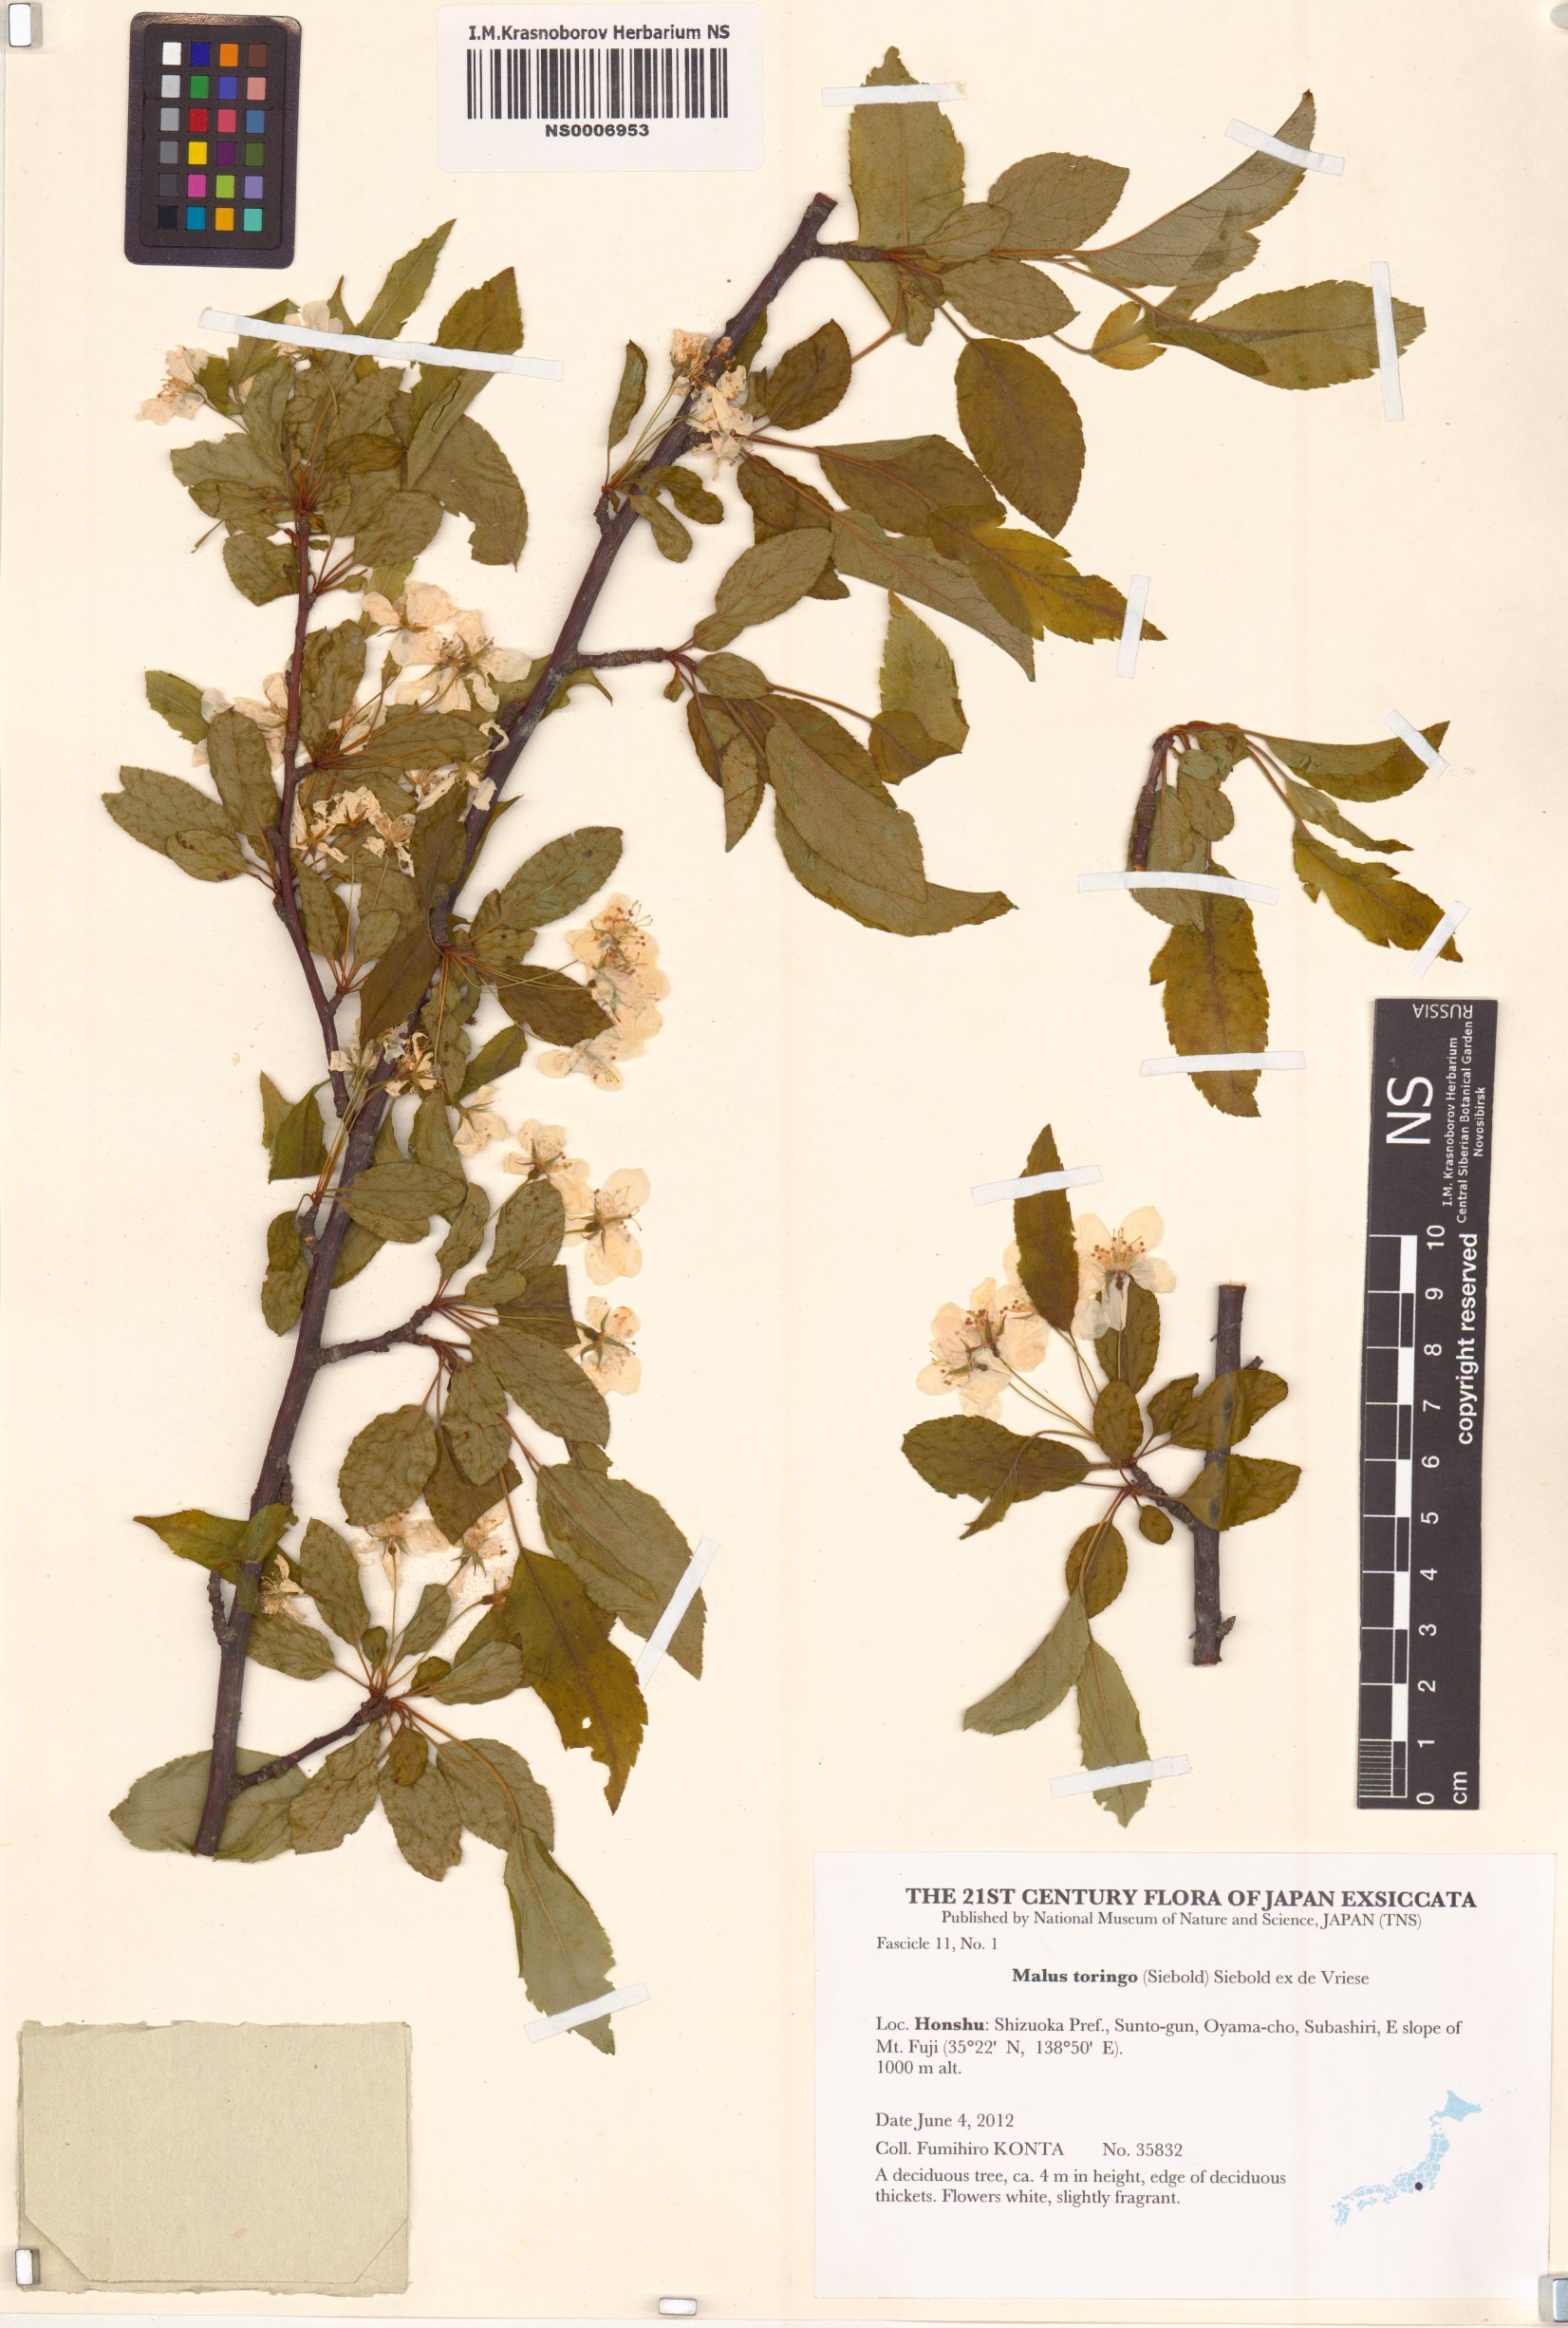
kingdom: Plantae
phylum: Tracheophyta
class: Magnoliopsida
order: Rosales
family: Rosaceae
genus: Malus
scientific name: Malus toringo
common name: Japanese crabapple
